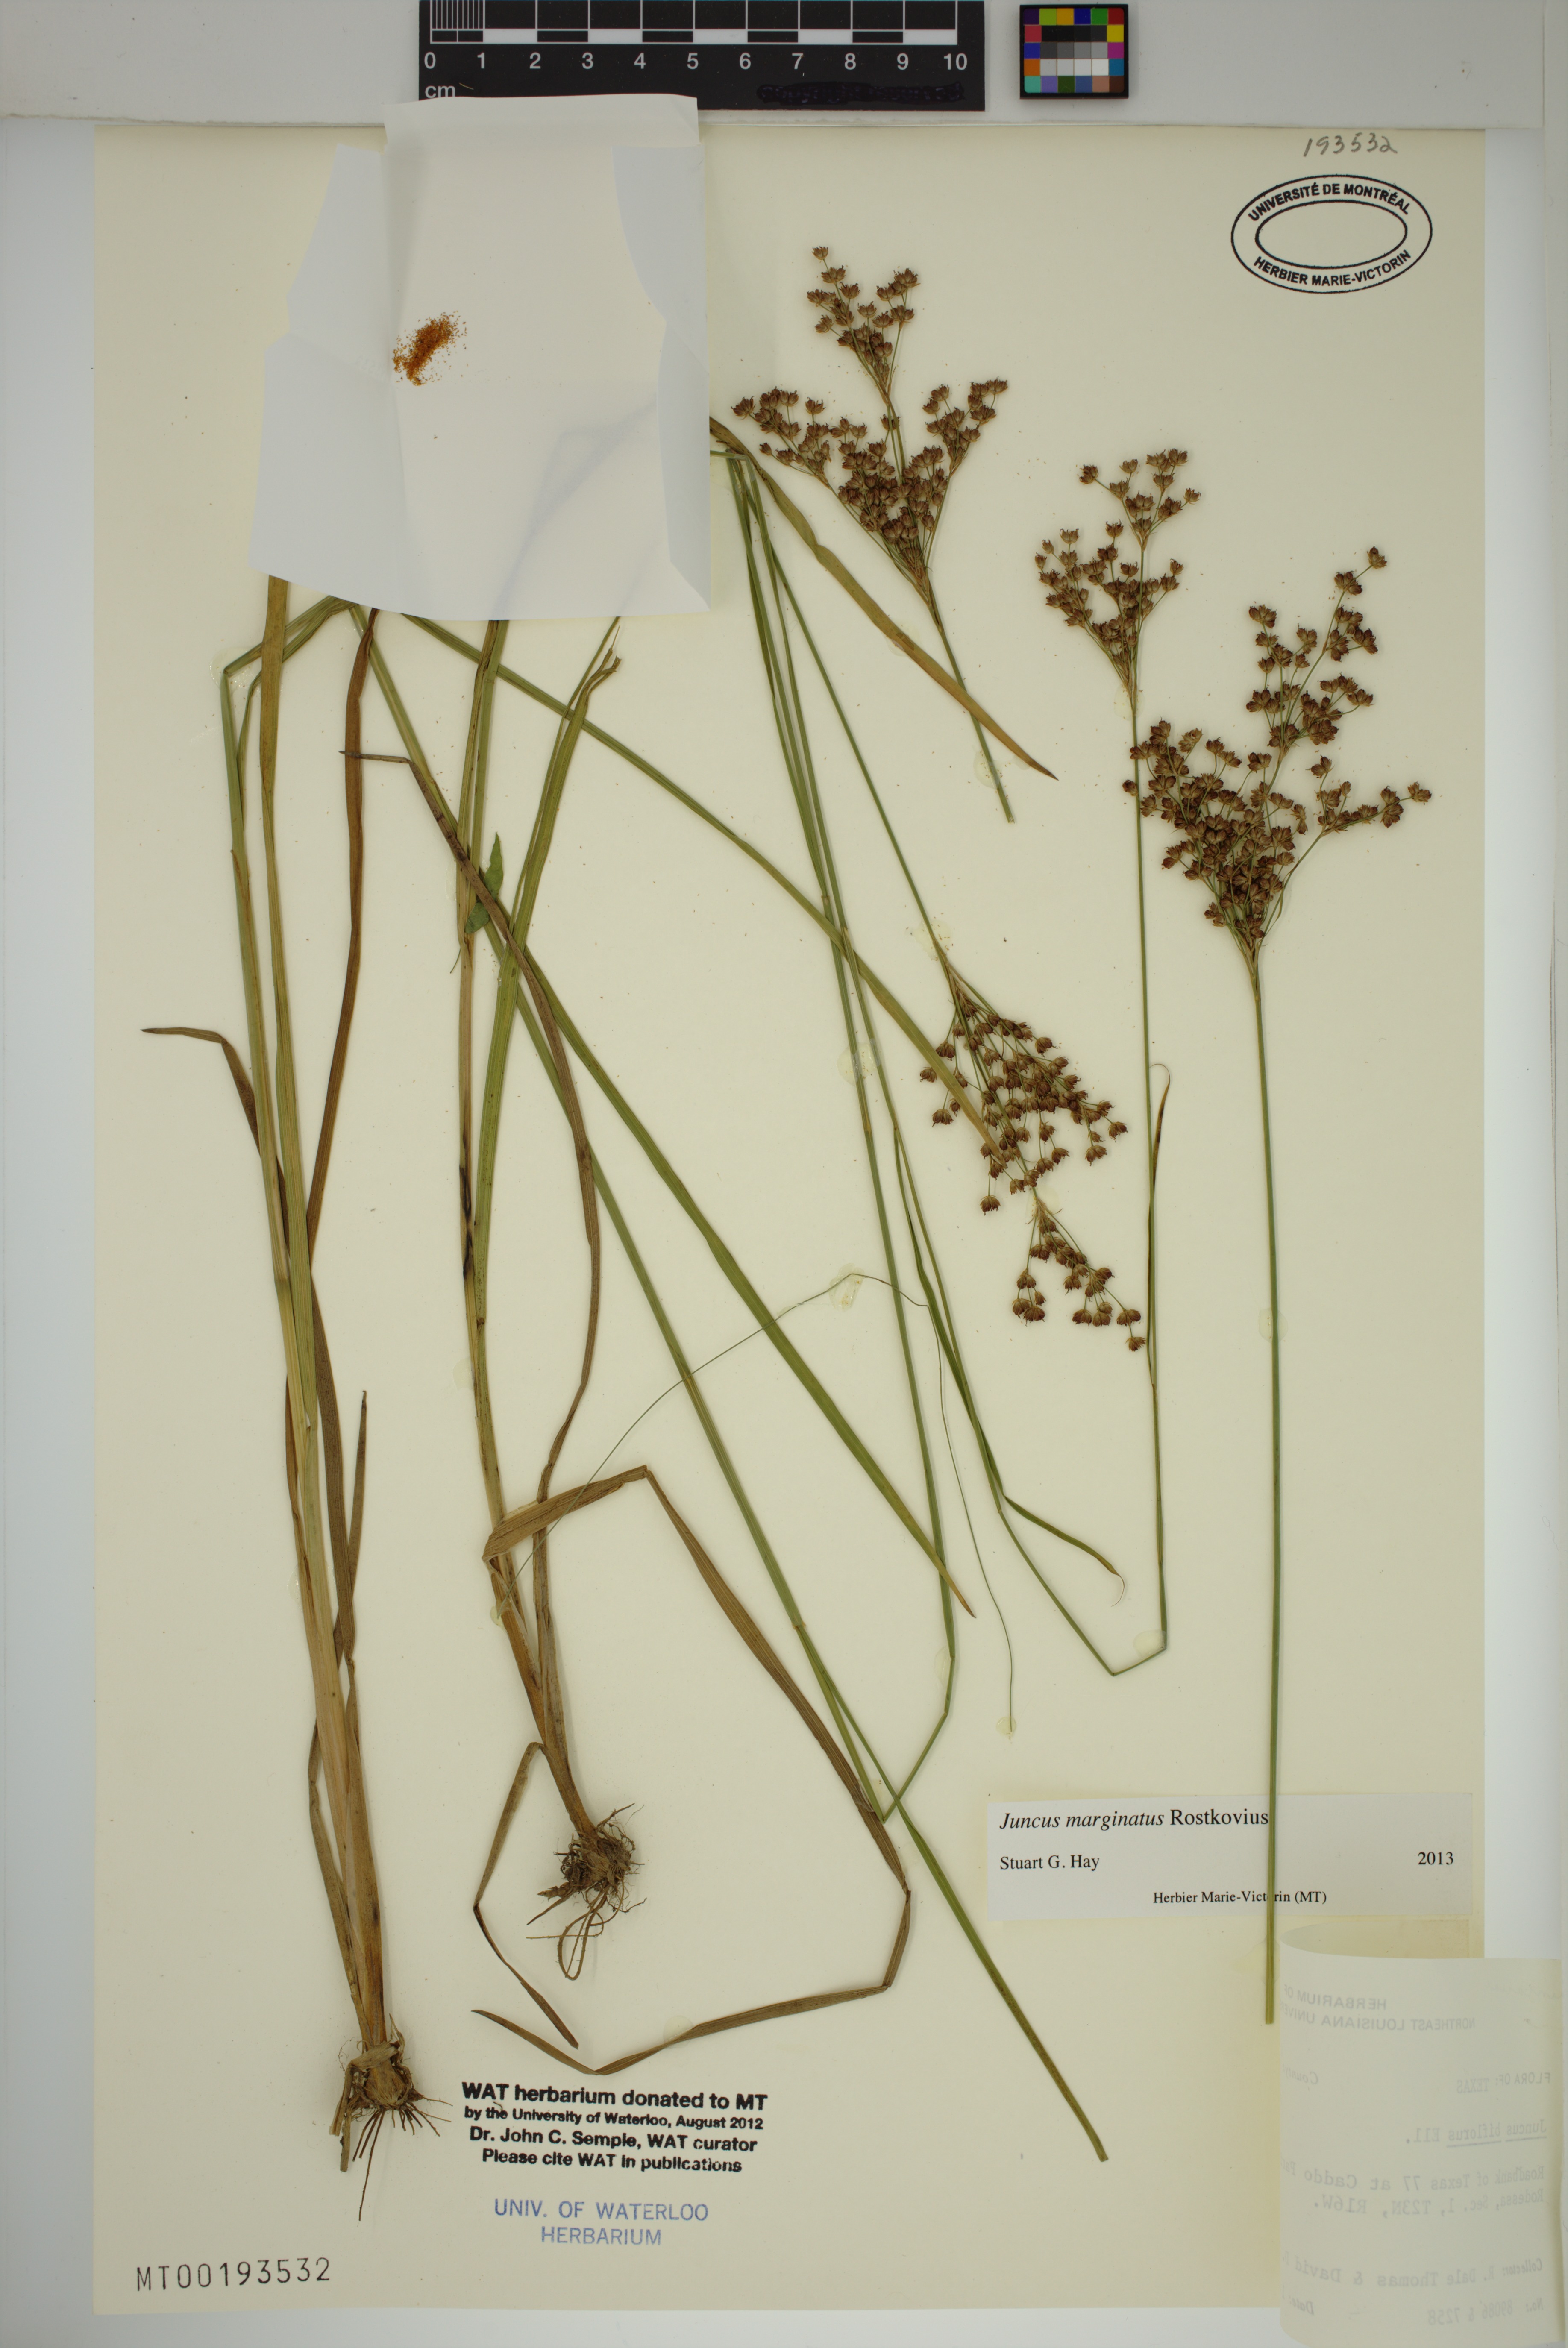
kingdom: Plantae
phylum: Tracheophyta
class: Liliopsida
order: Poales
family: Juncaceae
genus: Juncus
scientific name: Juncus marginatus
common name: Grass-leaf rush
